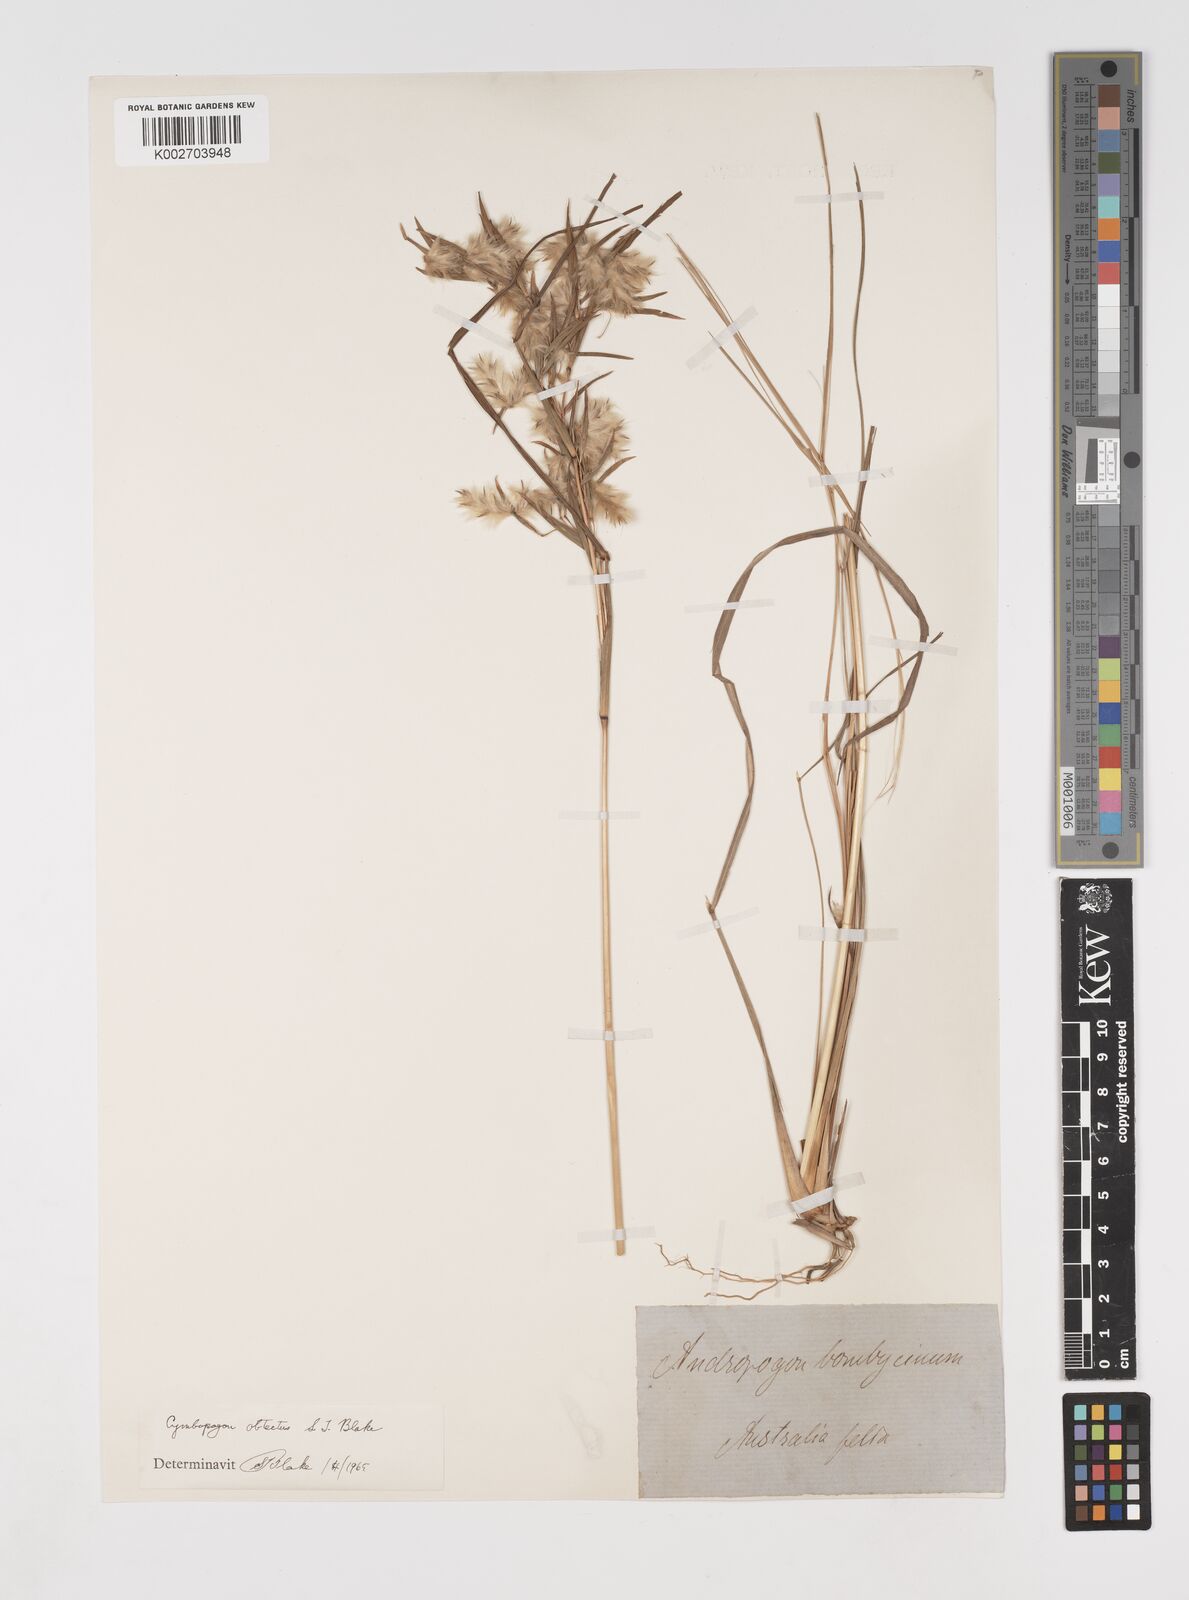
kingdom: Plantae
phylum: Tracheophyta
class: Liliopsida
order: Poales
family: Poaceae
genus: Cymbopogon
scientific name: Cymbopogon obtectus
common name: Silky heads
